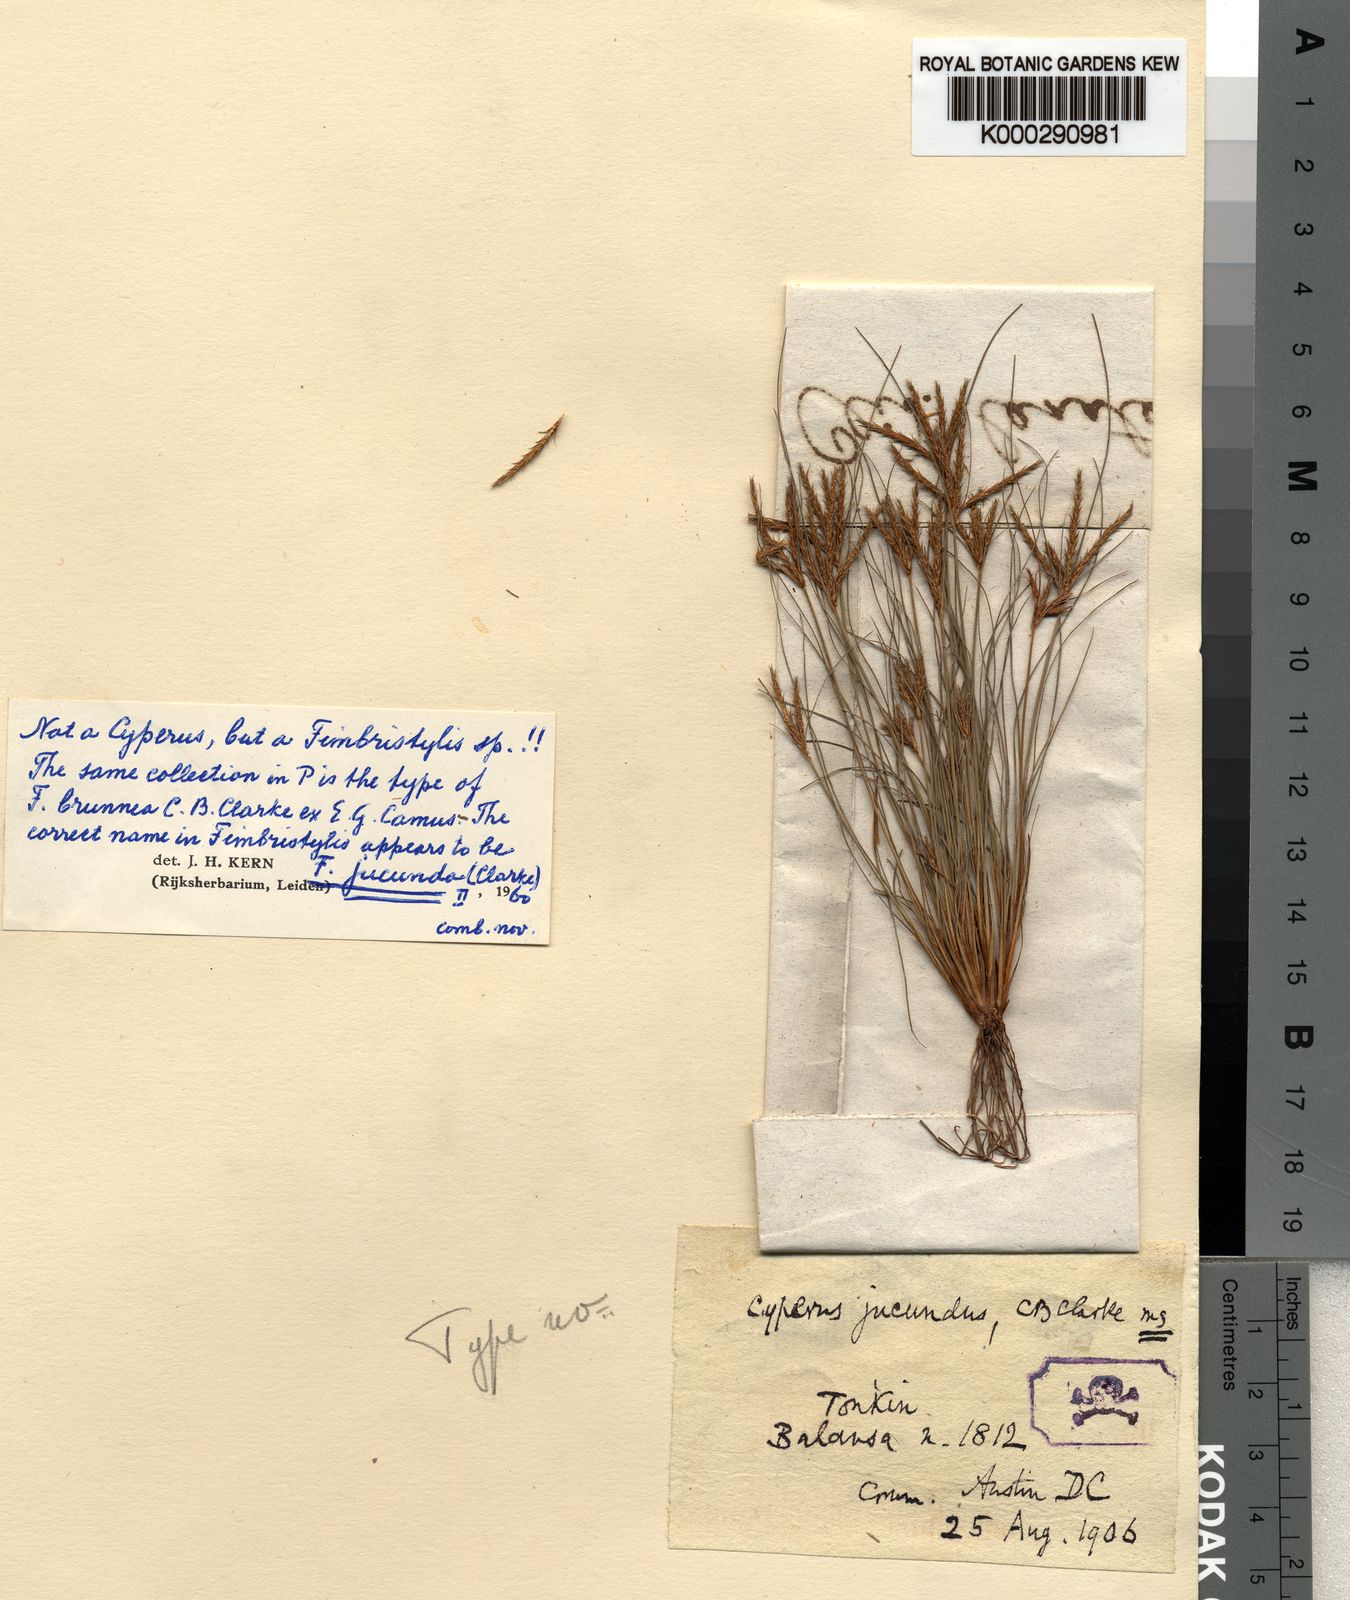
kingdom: Plantae
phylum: Tracheophyta
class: Liliopsida
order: Poales
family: Cyperaceae
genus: Fimbristylis
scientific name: Fimbristylis jucunda
